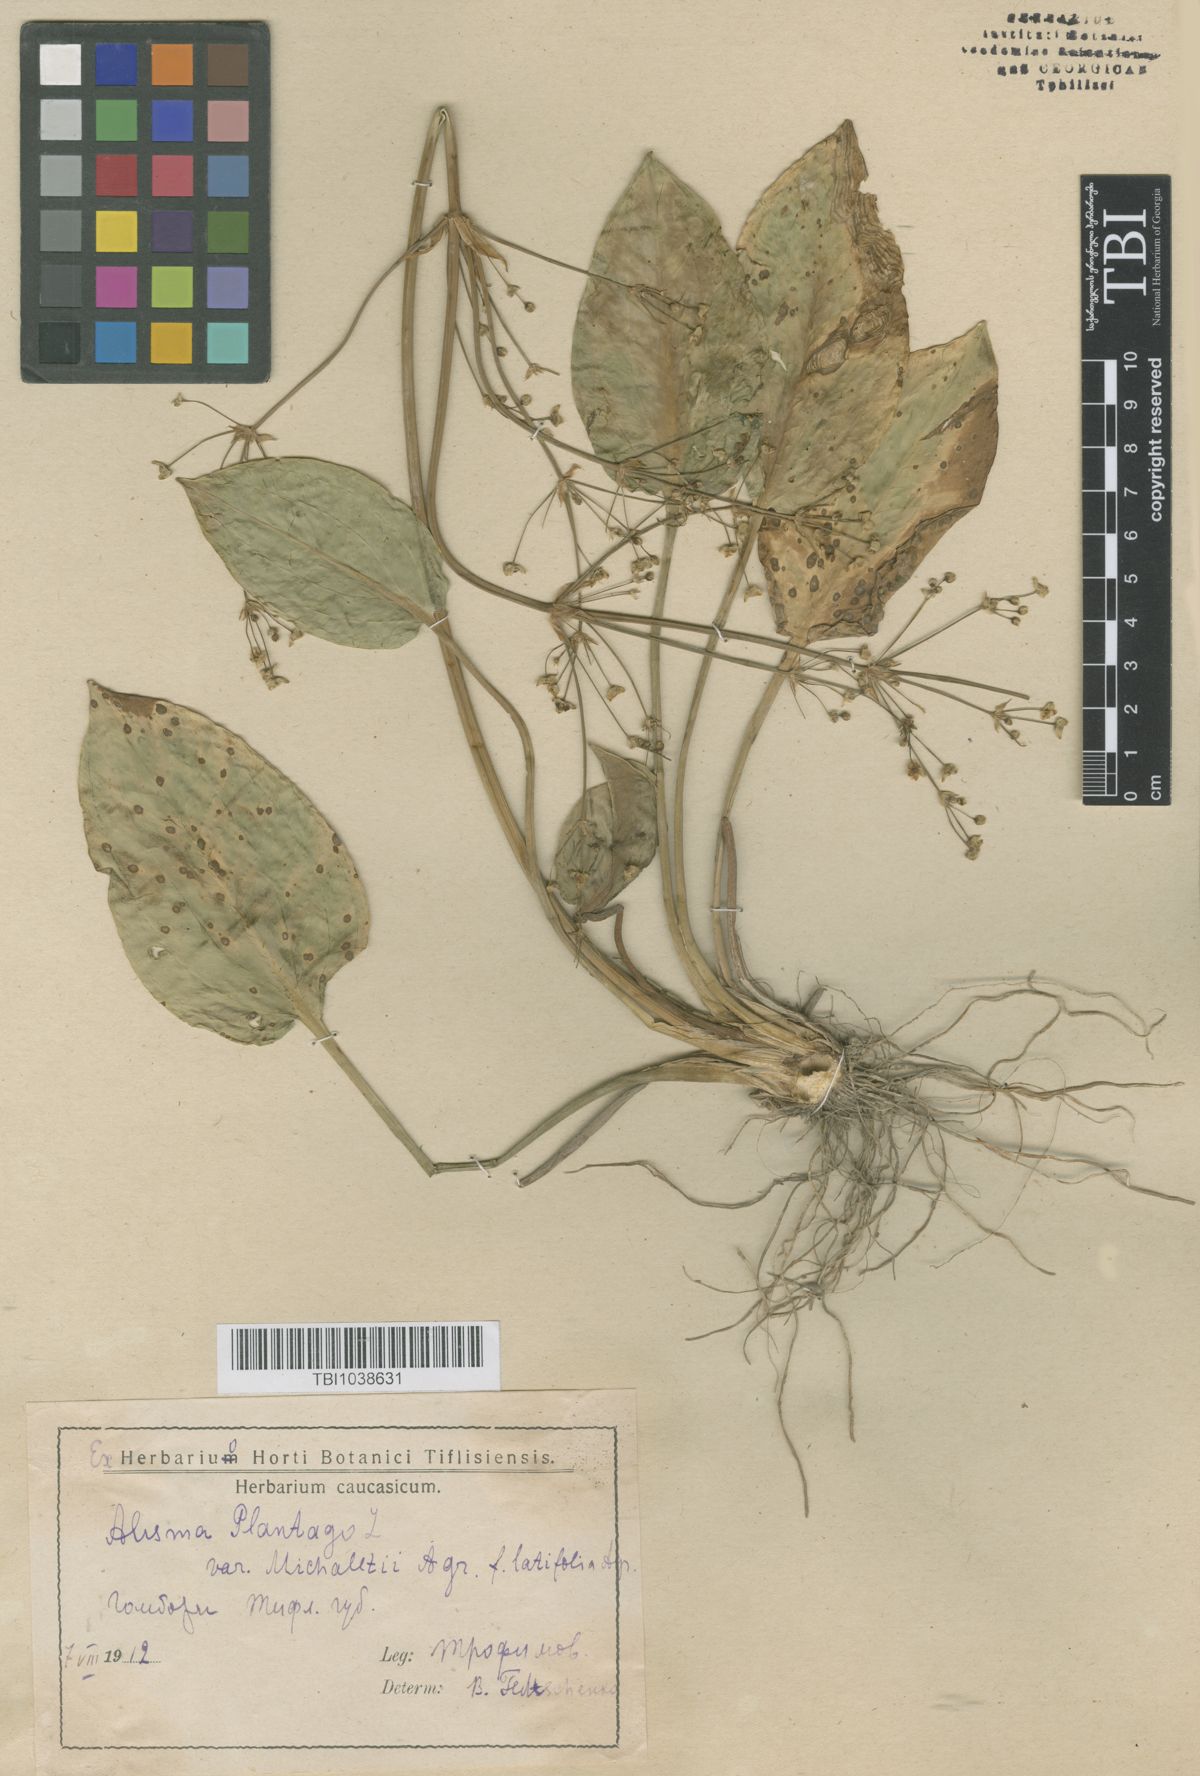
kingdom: Plantae
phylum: Tracheophyta
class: Liliopsida
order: Alismatales
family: Alismataceae
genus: Alisma
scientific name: Alisma plantago-aquatica
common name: Water-plantain
